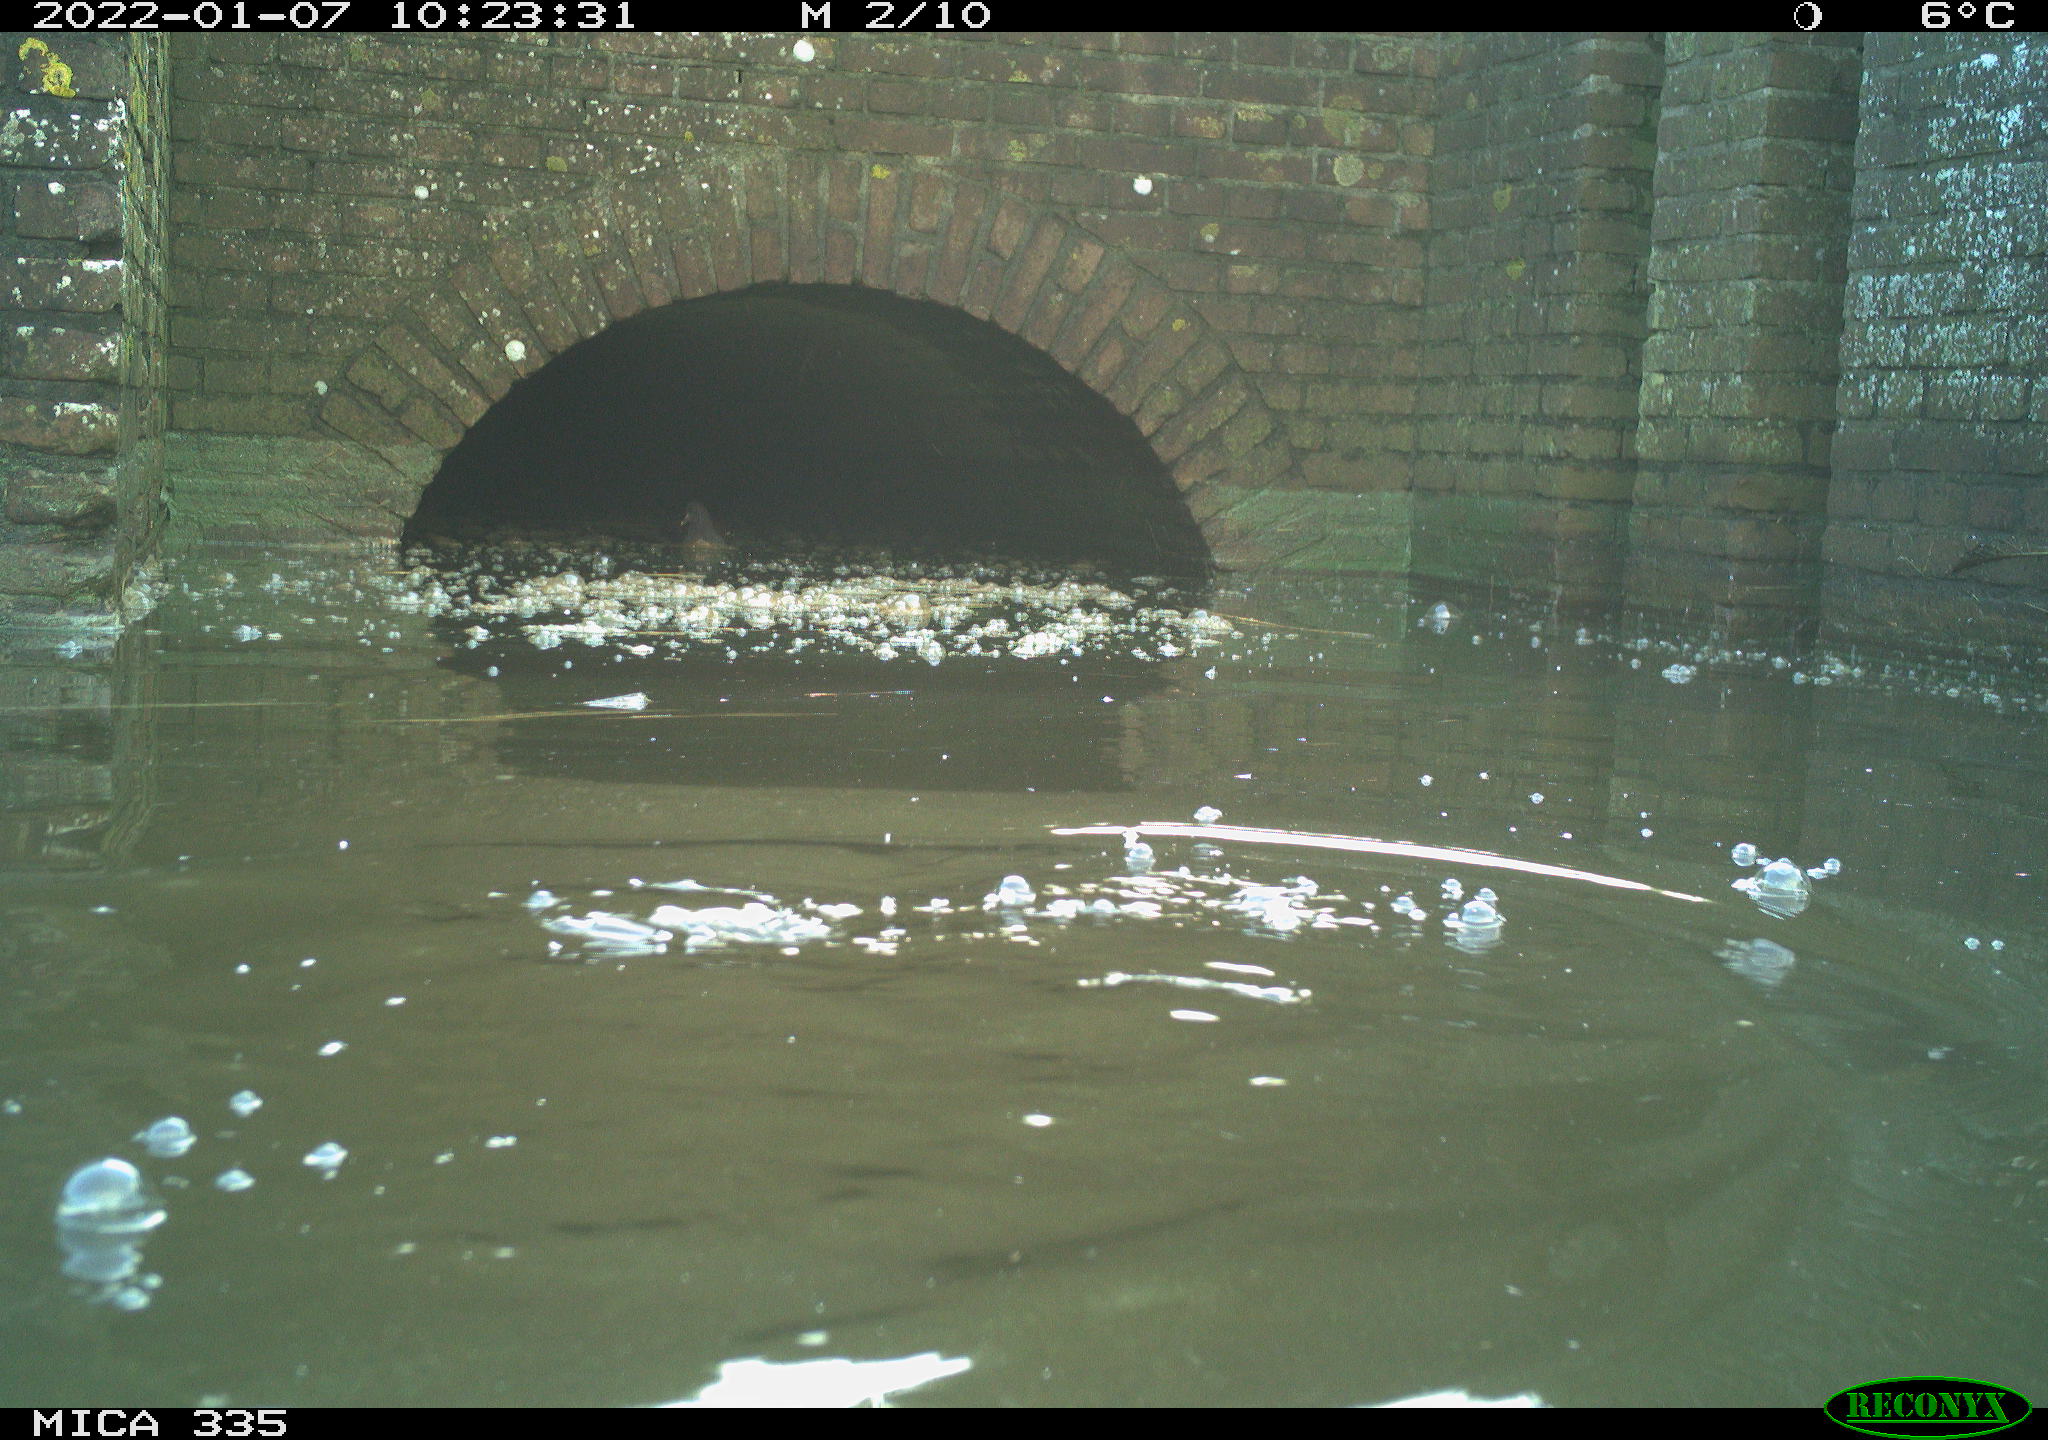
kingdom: Animalia
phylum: Chordata
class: Aves
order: Gruiformes
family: Rallidae
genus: Gallinula
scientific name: Gallinula chloropus
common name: Common moorhen
